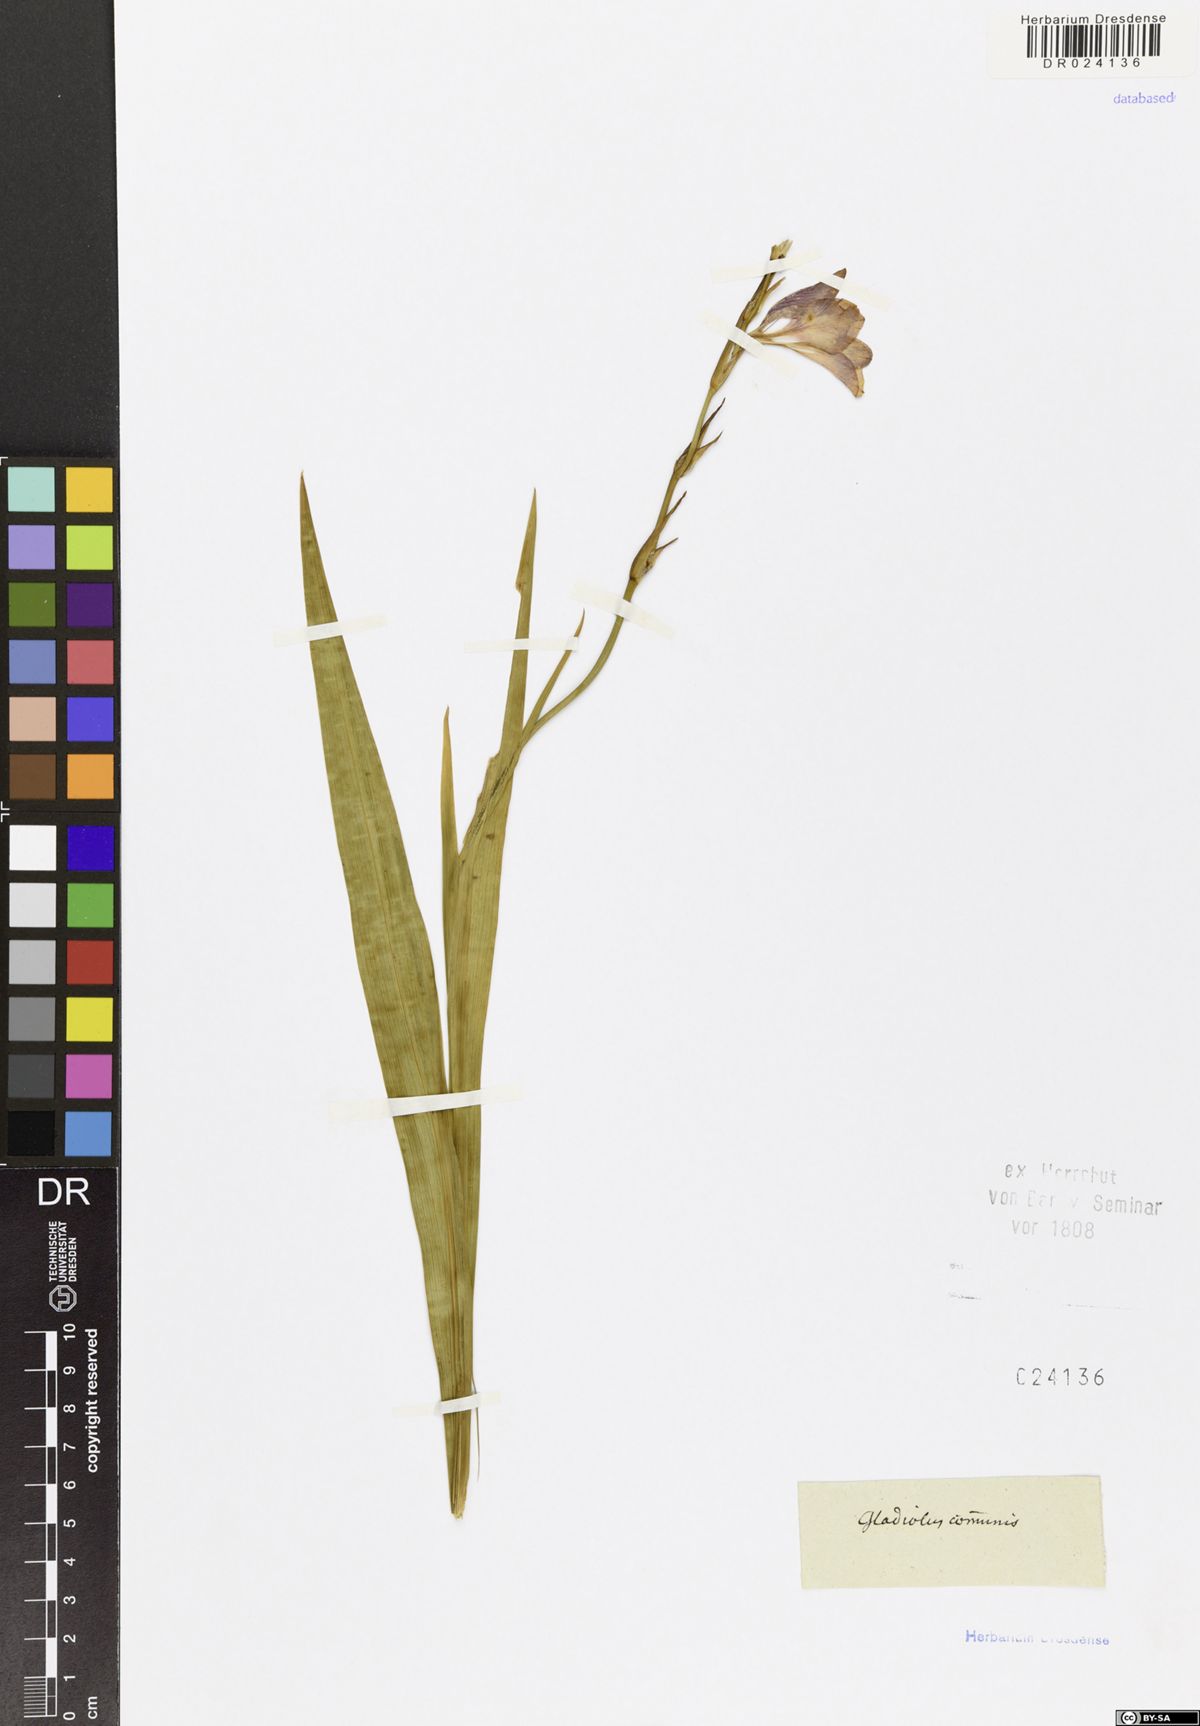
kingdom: Plantae
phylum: Tracheophyta
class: Liliopsida
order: Asparagales
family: Iridaceae
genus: Gladiolus
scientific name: Gladiolus communis
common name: Eastern gladiolus
